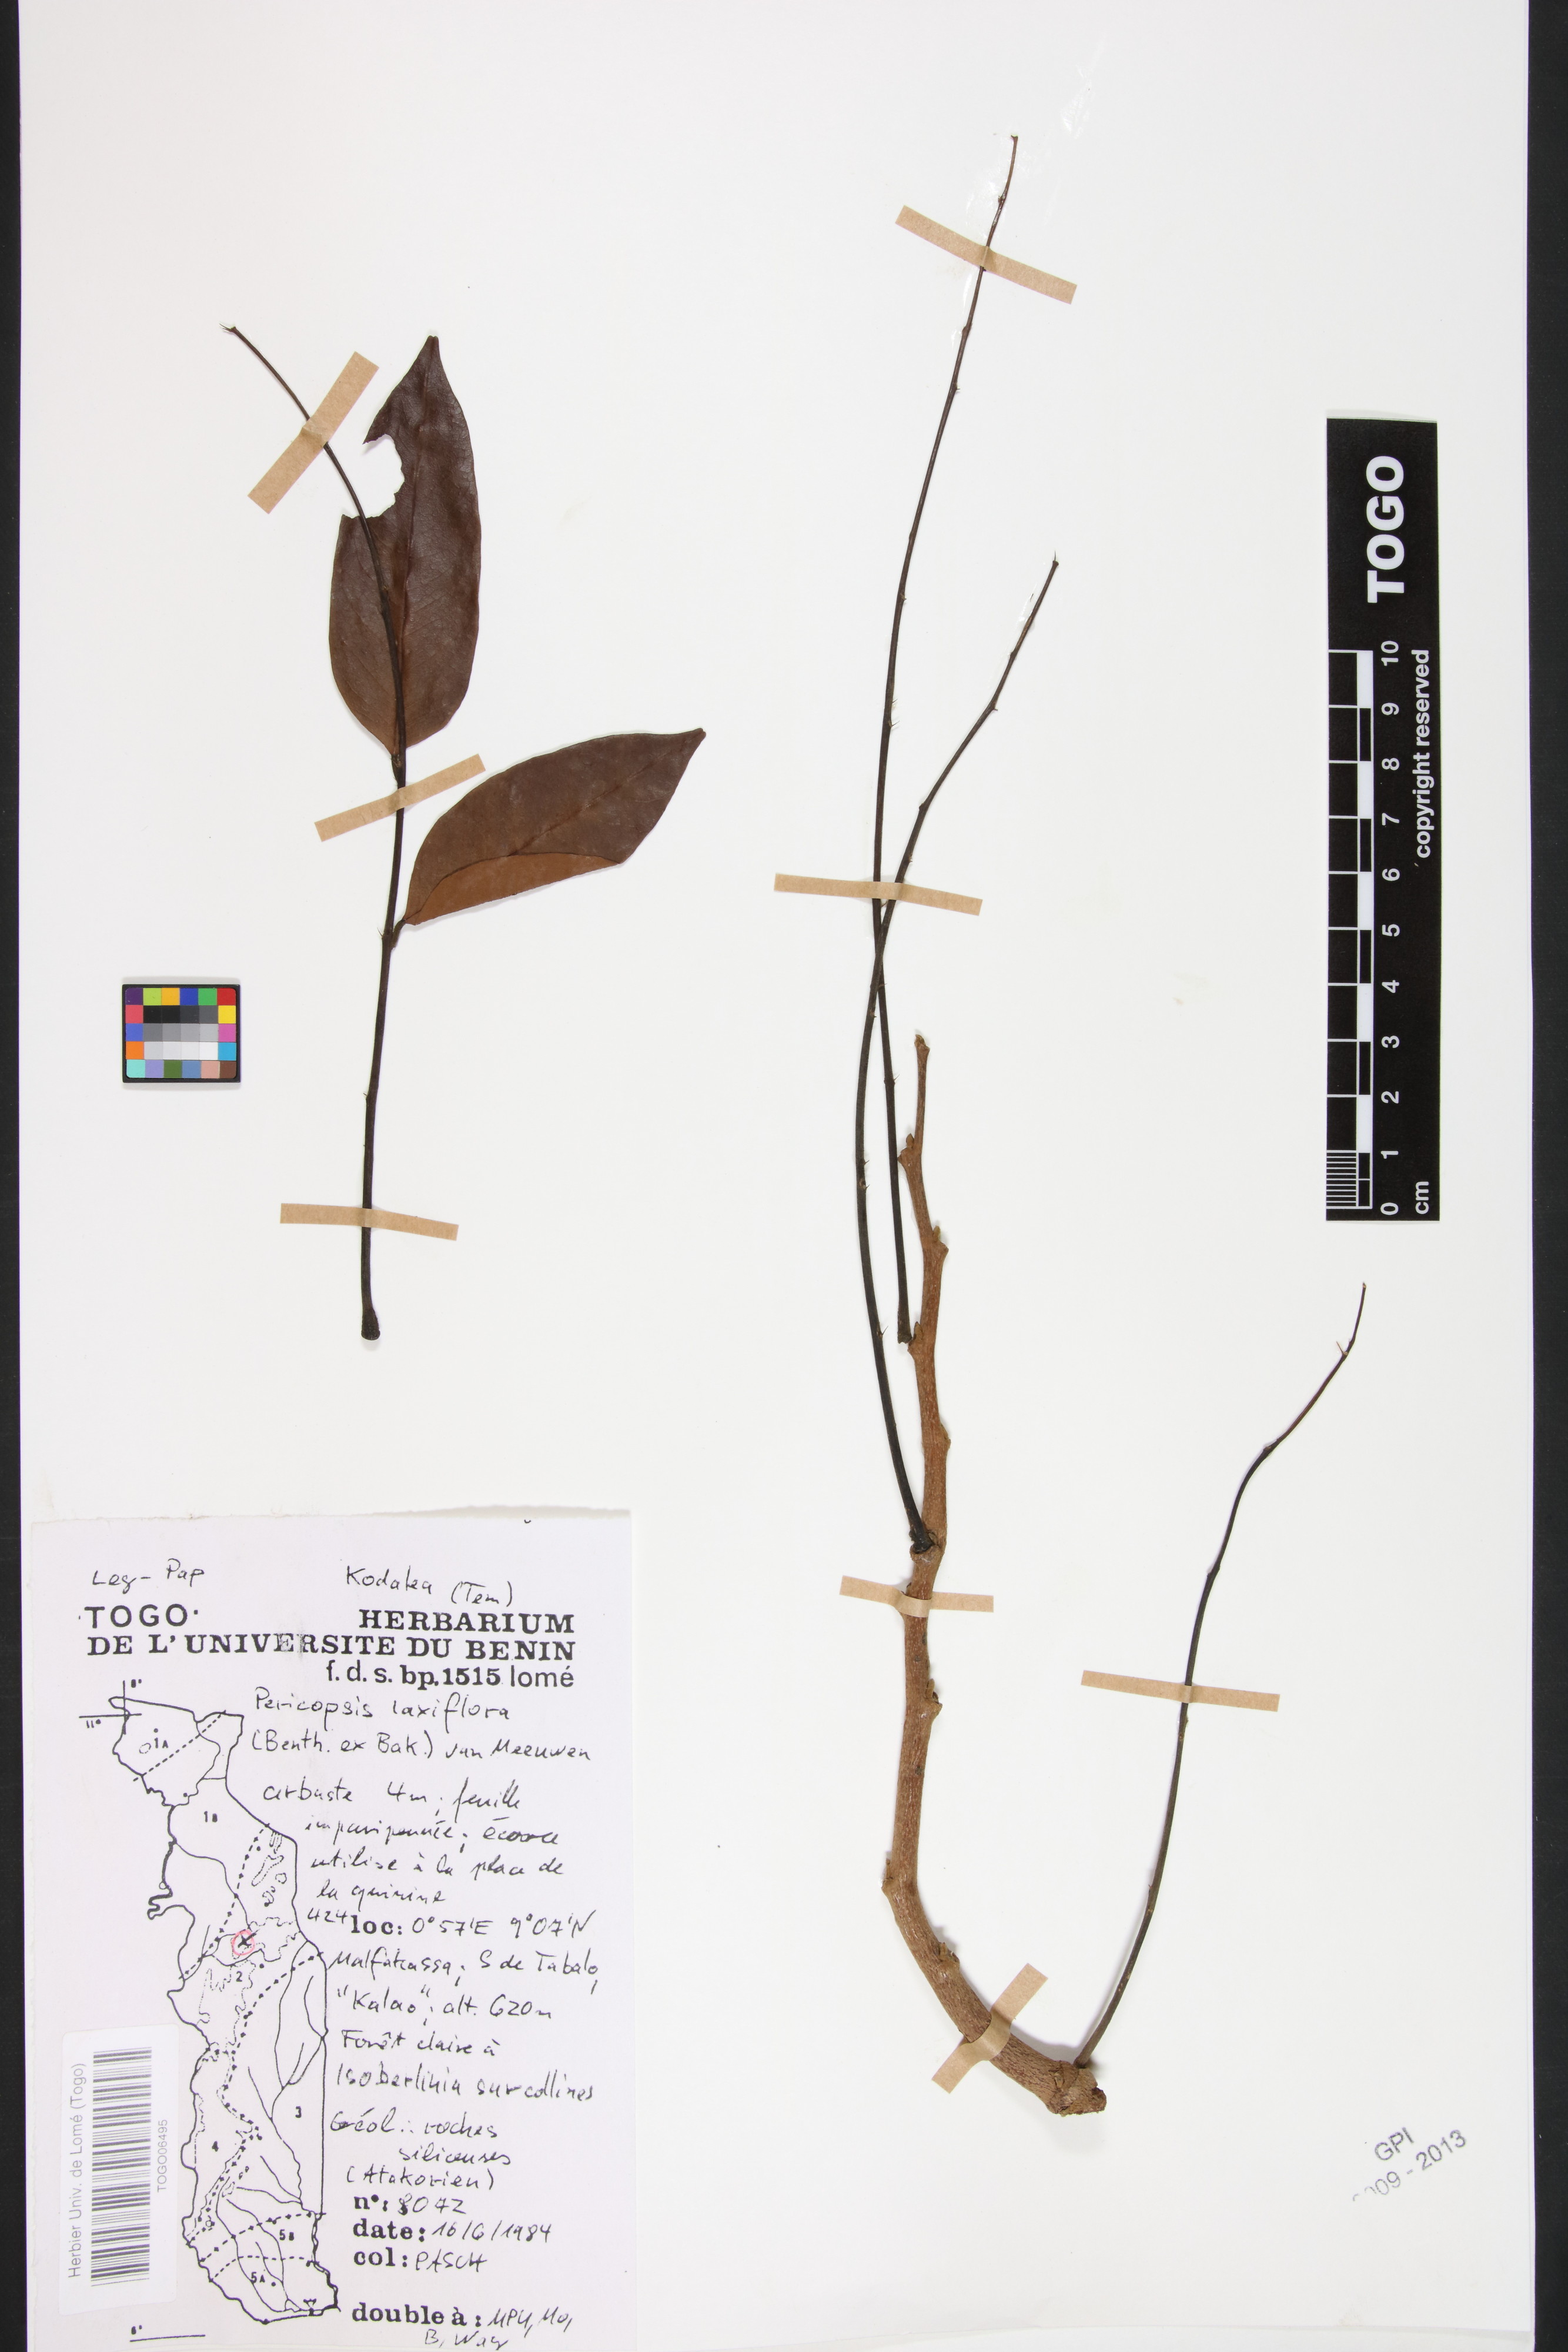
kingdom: Plantae
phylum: Tracheophyta
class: Magnoliopsida
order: Fabales
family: Fabaceae
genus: Pericopsis
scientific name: Pericopsis laxiflora
